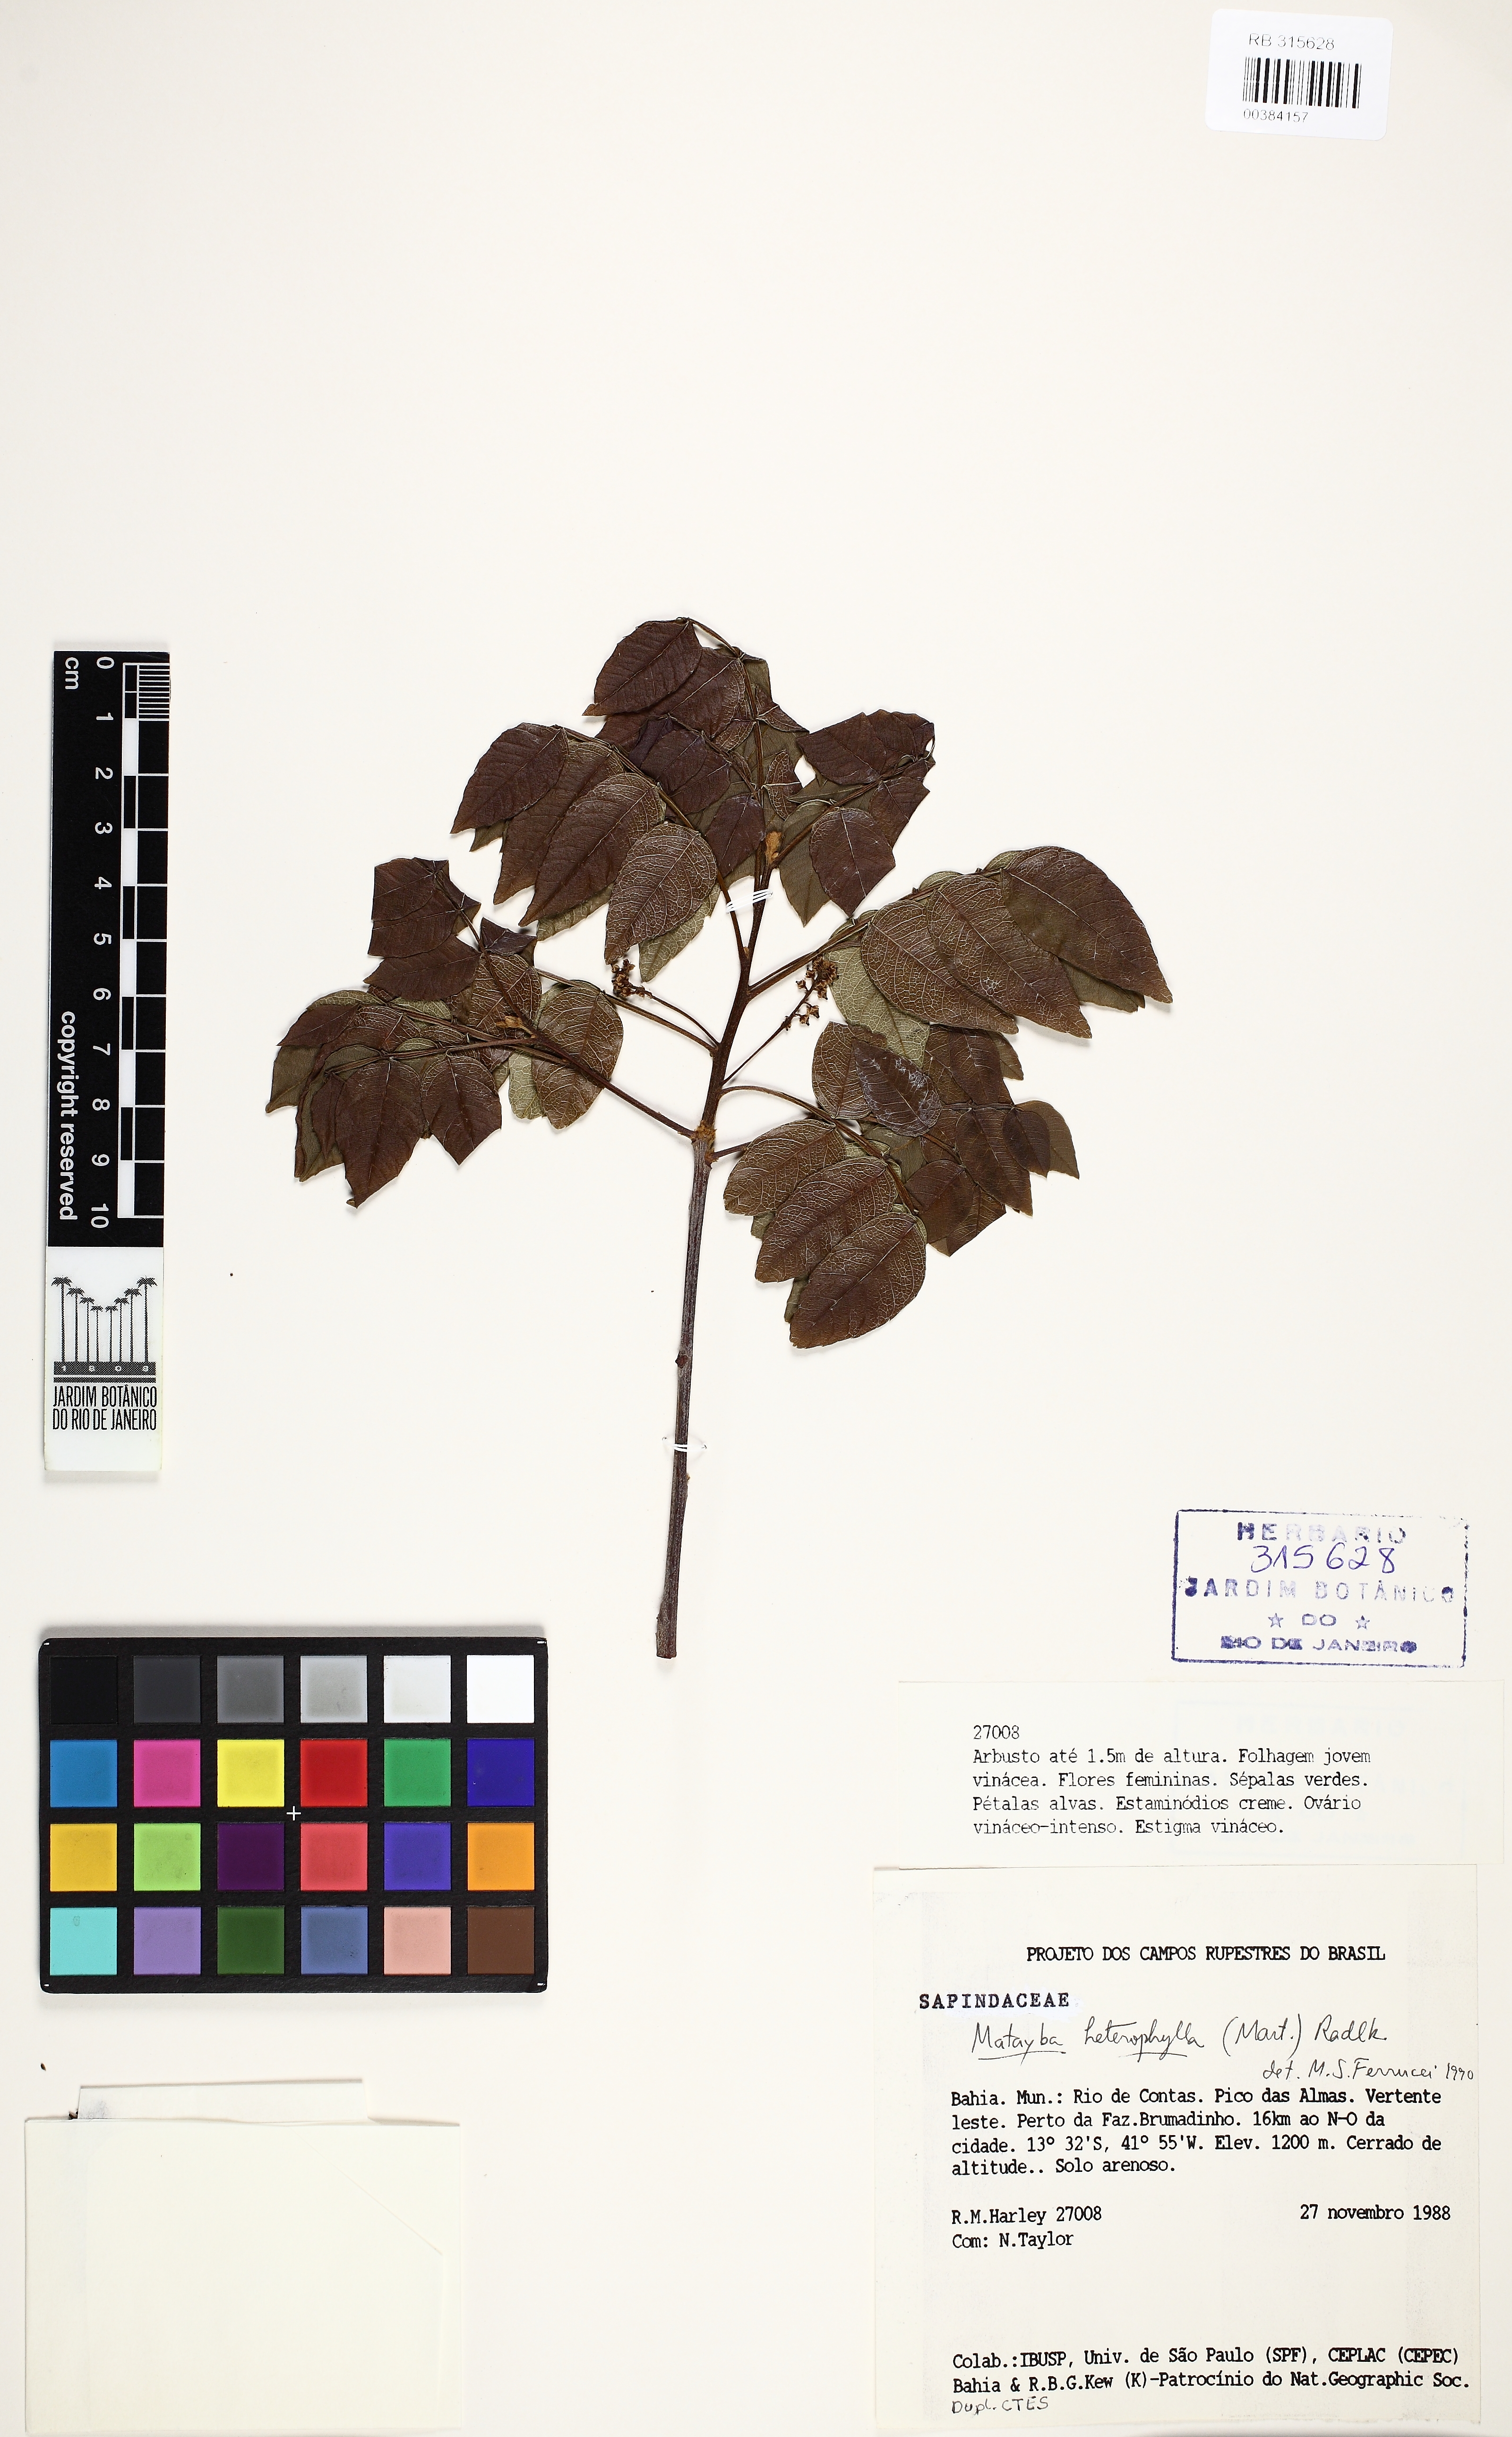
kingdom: Plantae
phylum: Tracheophyta
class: Magnoliopsida
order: Sapindales
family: Sapindaceae
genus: Matayba
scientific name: Matayba heterophylla
